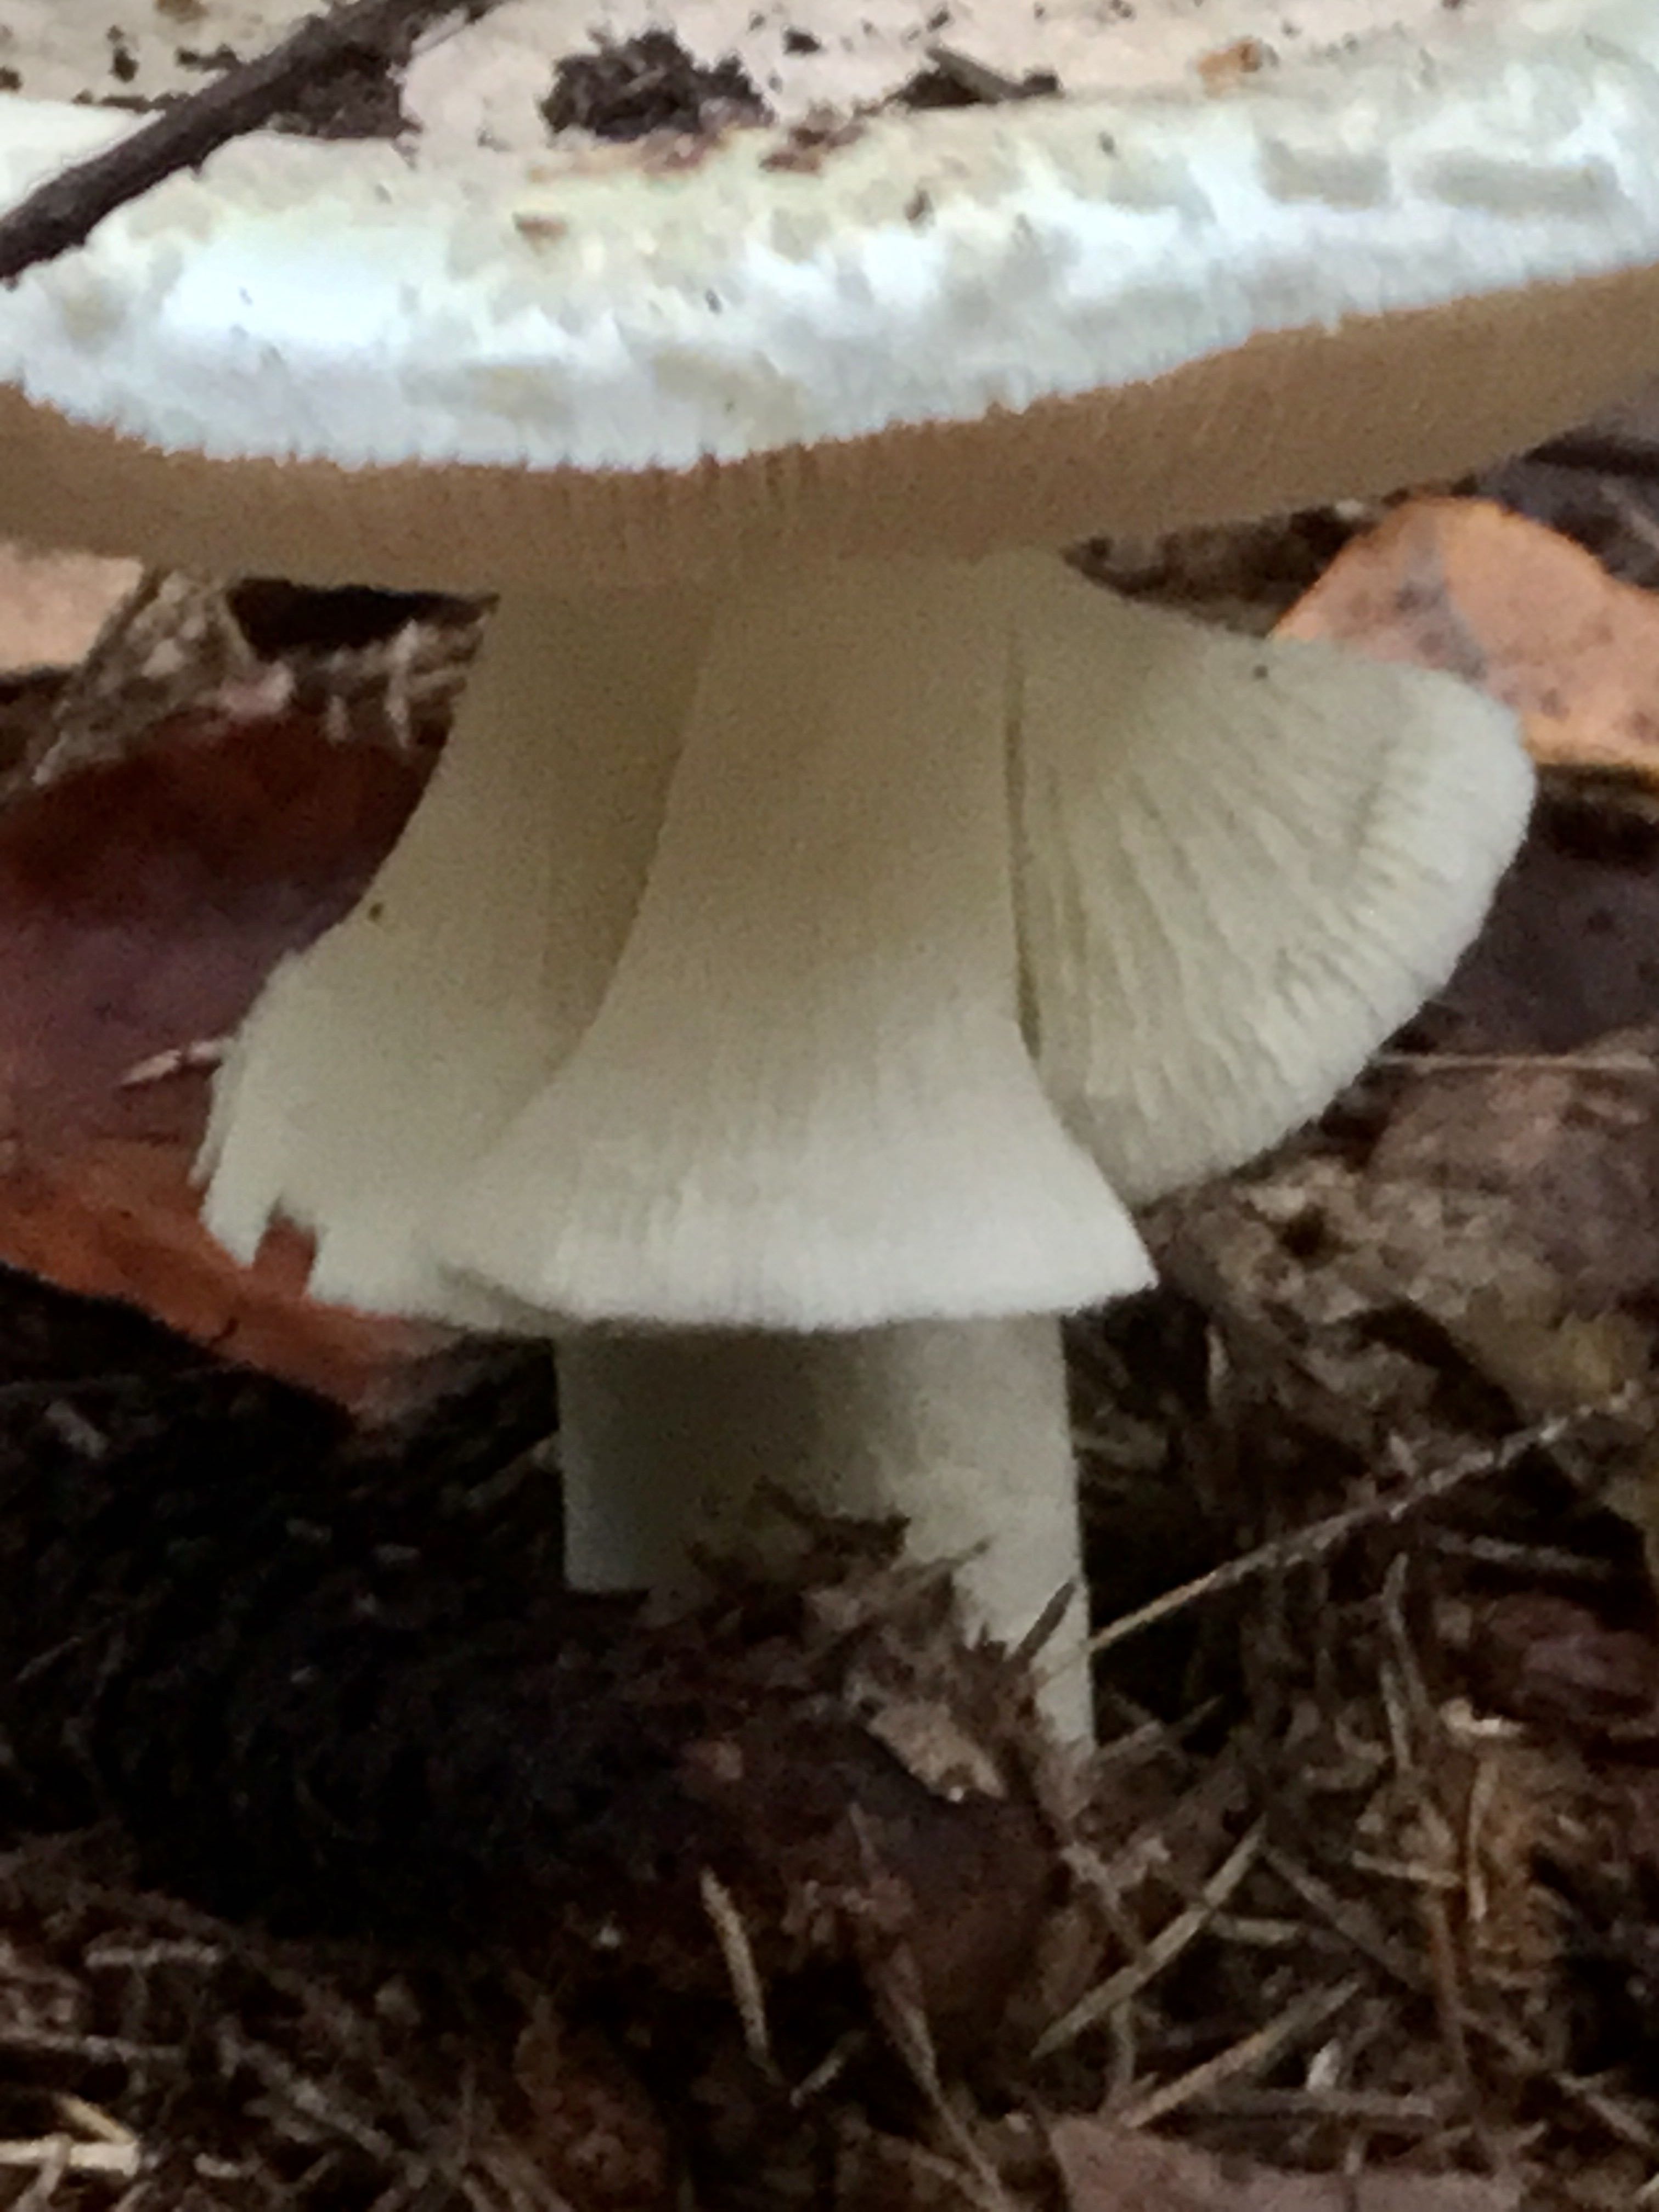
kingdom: Fungi
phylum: Basidiomycota
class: Agaricomycetes
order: Agaricales
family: Amanitaceae
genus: Amanita
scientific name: Amanita citrina
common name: False death-cap
